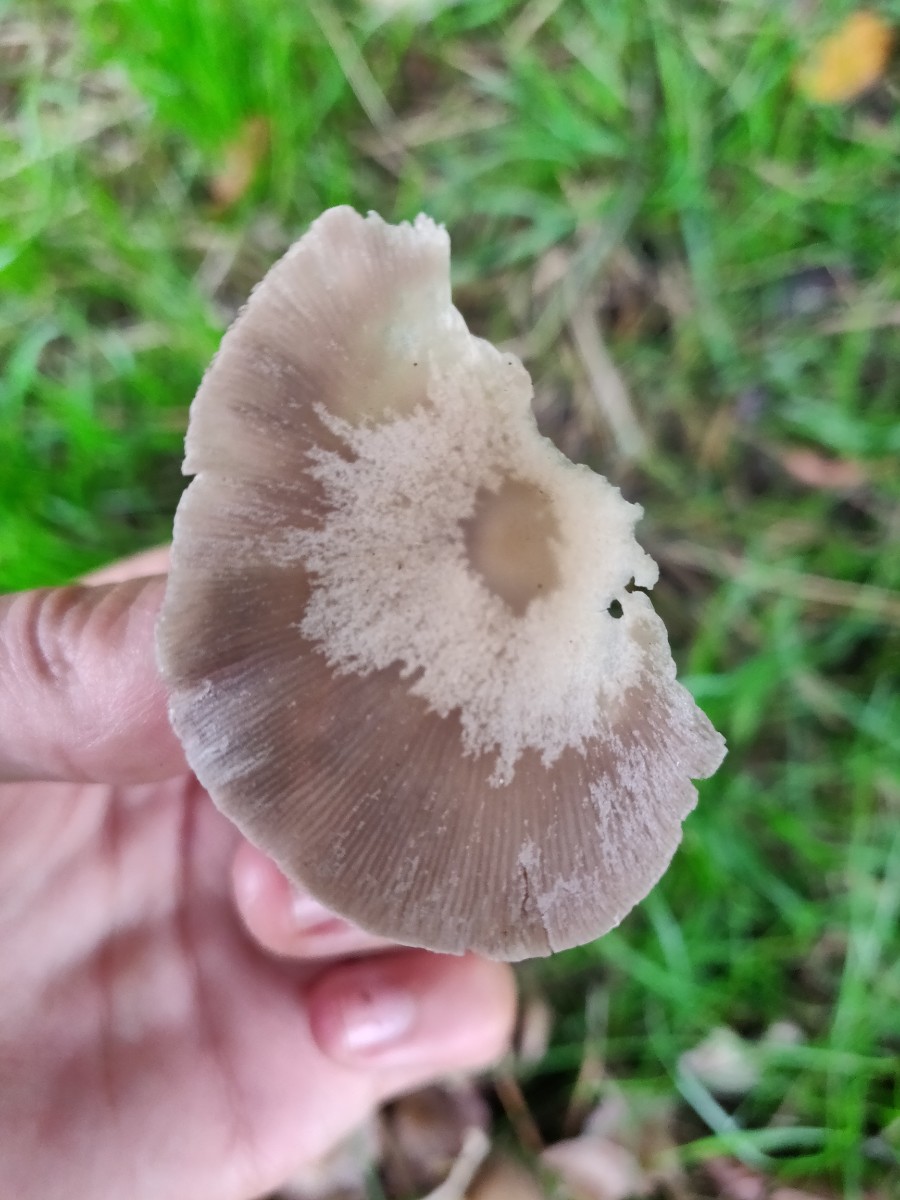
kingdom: Fungi
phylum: Basidiomycota
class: Agaricomycetes
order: Agaricales
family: Psathyrellaceae
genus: Candolleomyces
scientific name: Candolleomyces candolleanus
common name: Candolles mørkhat
